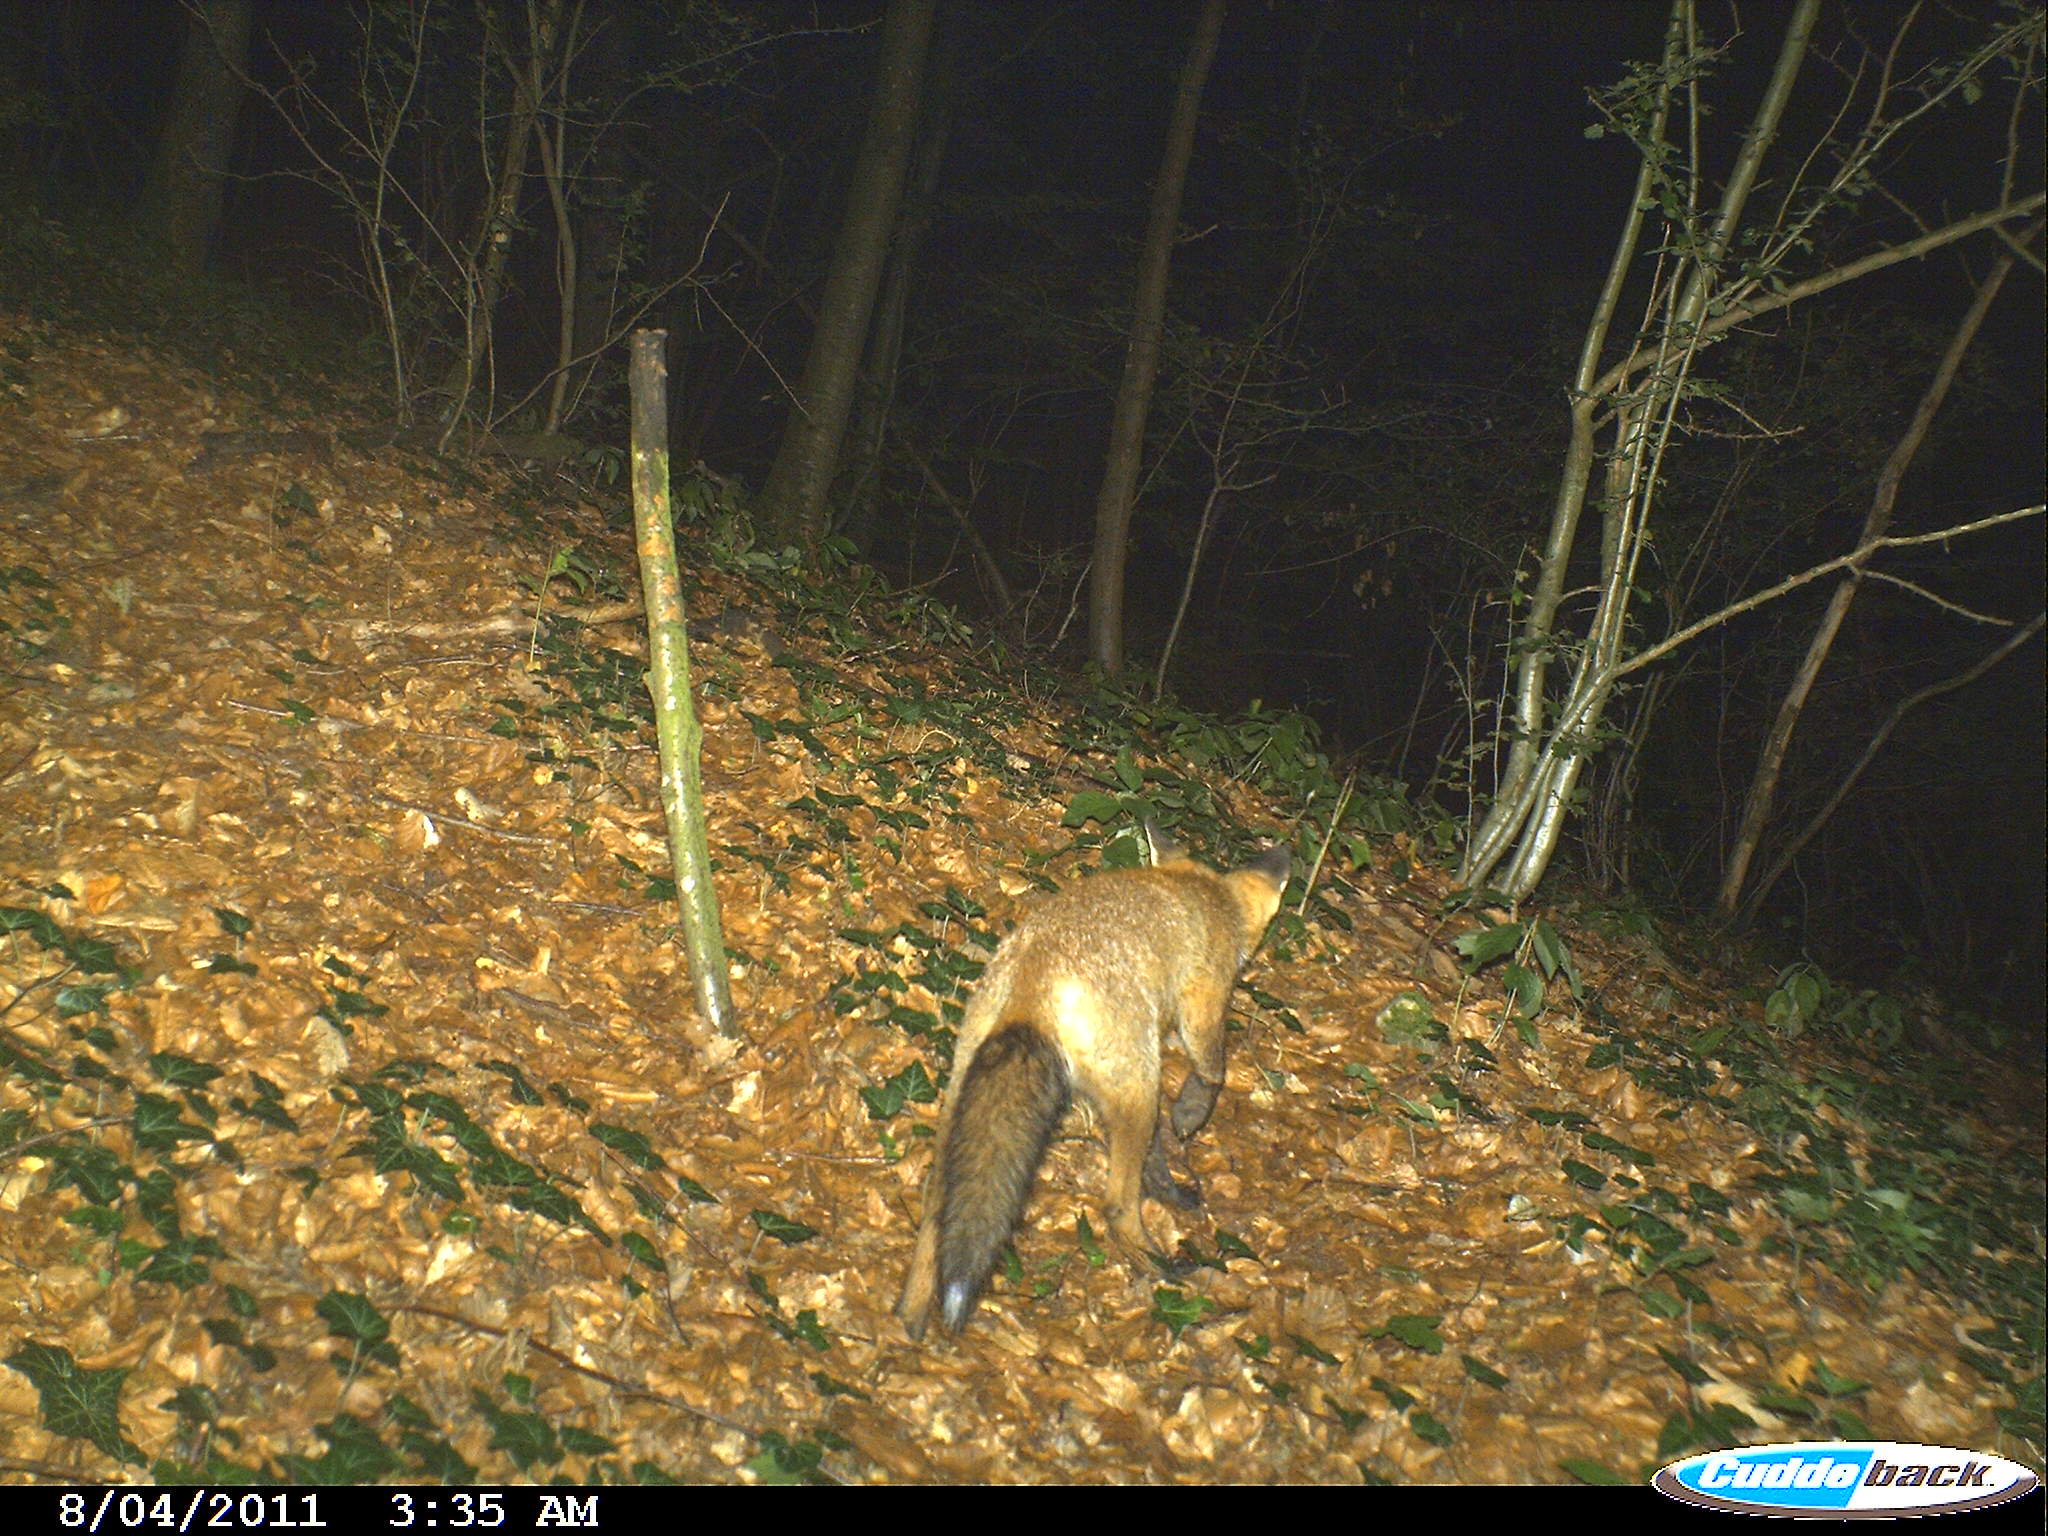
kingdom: Animalia
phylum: Chordata
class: Mammalia
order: Carnivora
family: Canidae
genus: Vulpes
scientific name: Vulpes vulpes
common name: Red fox
